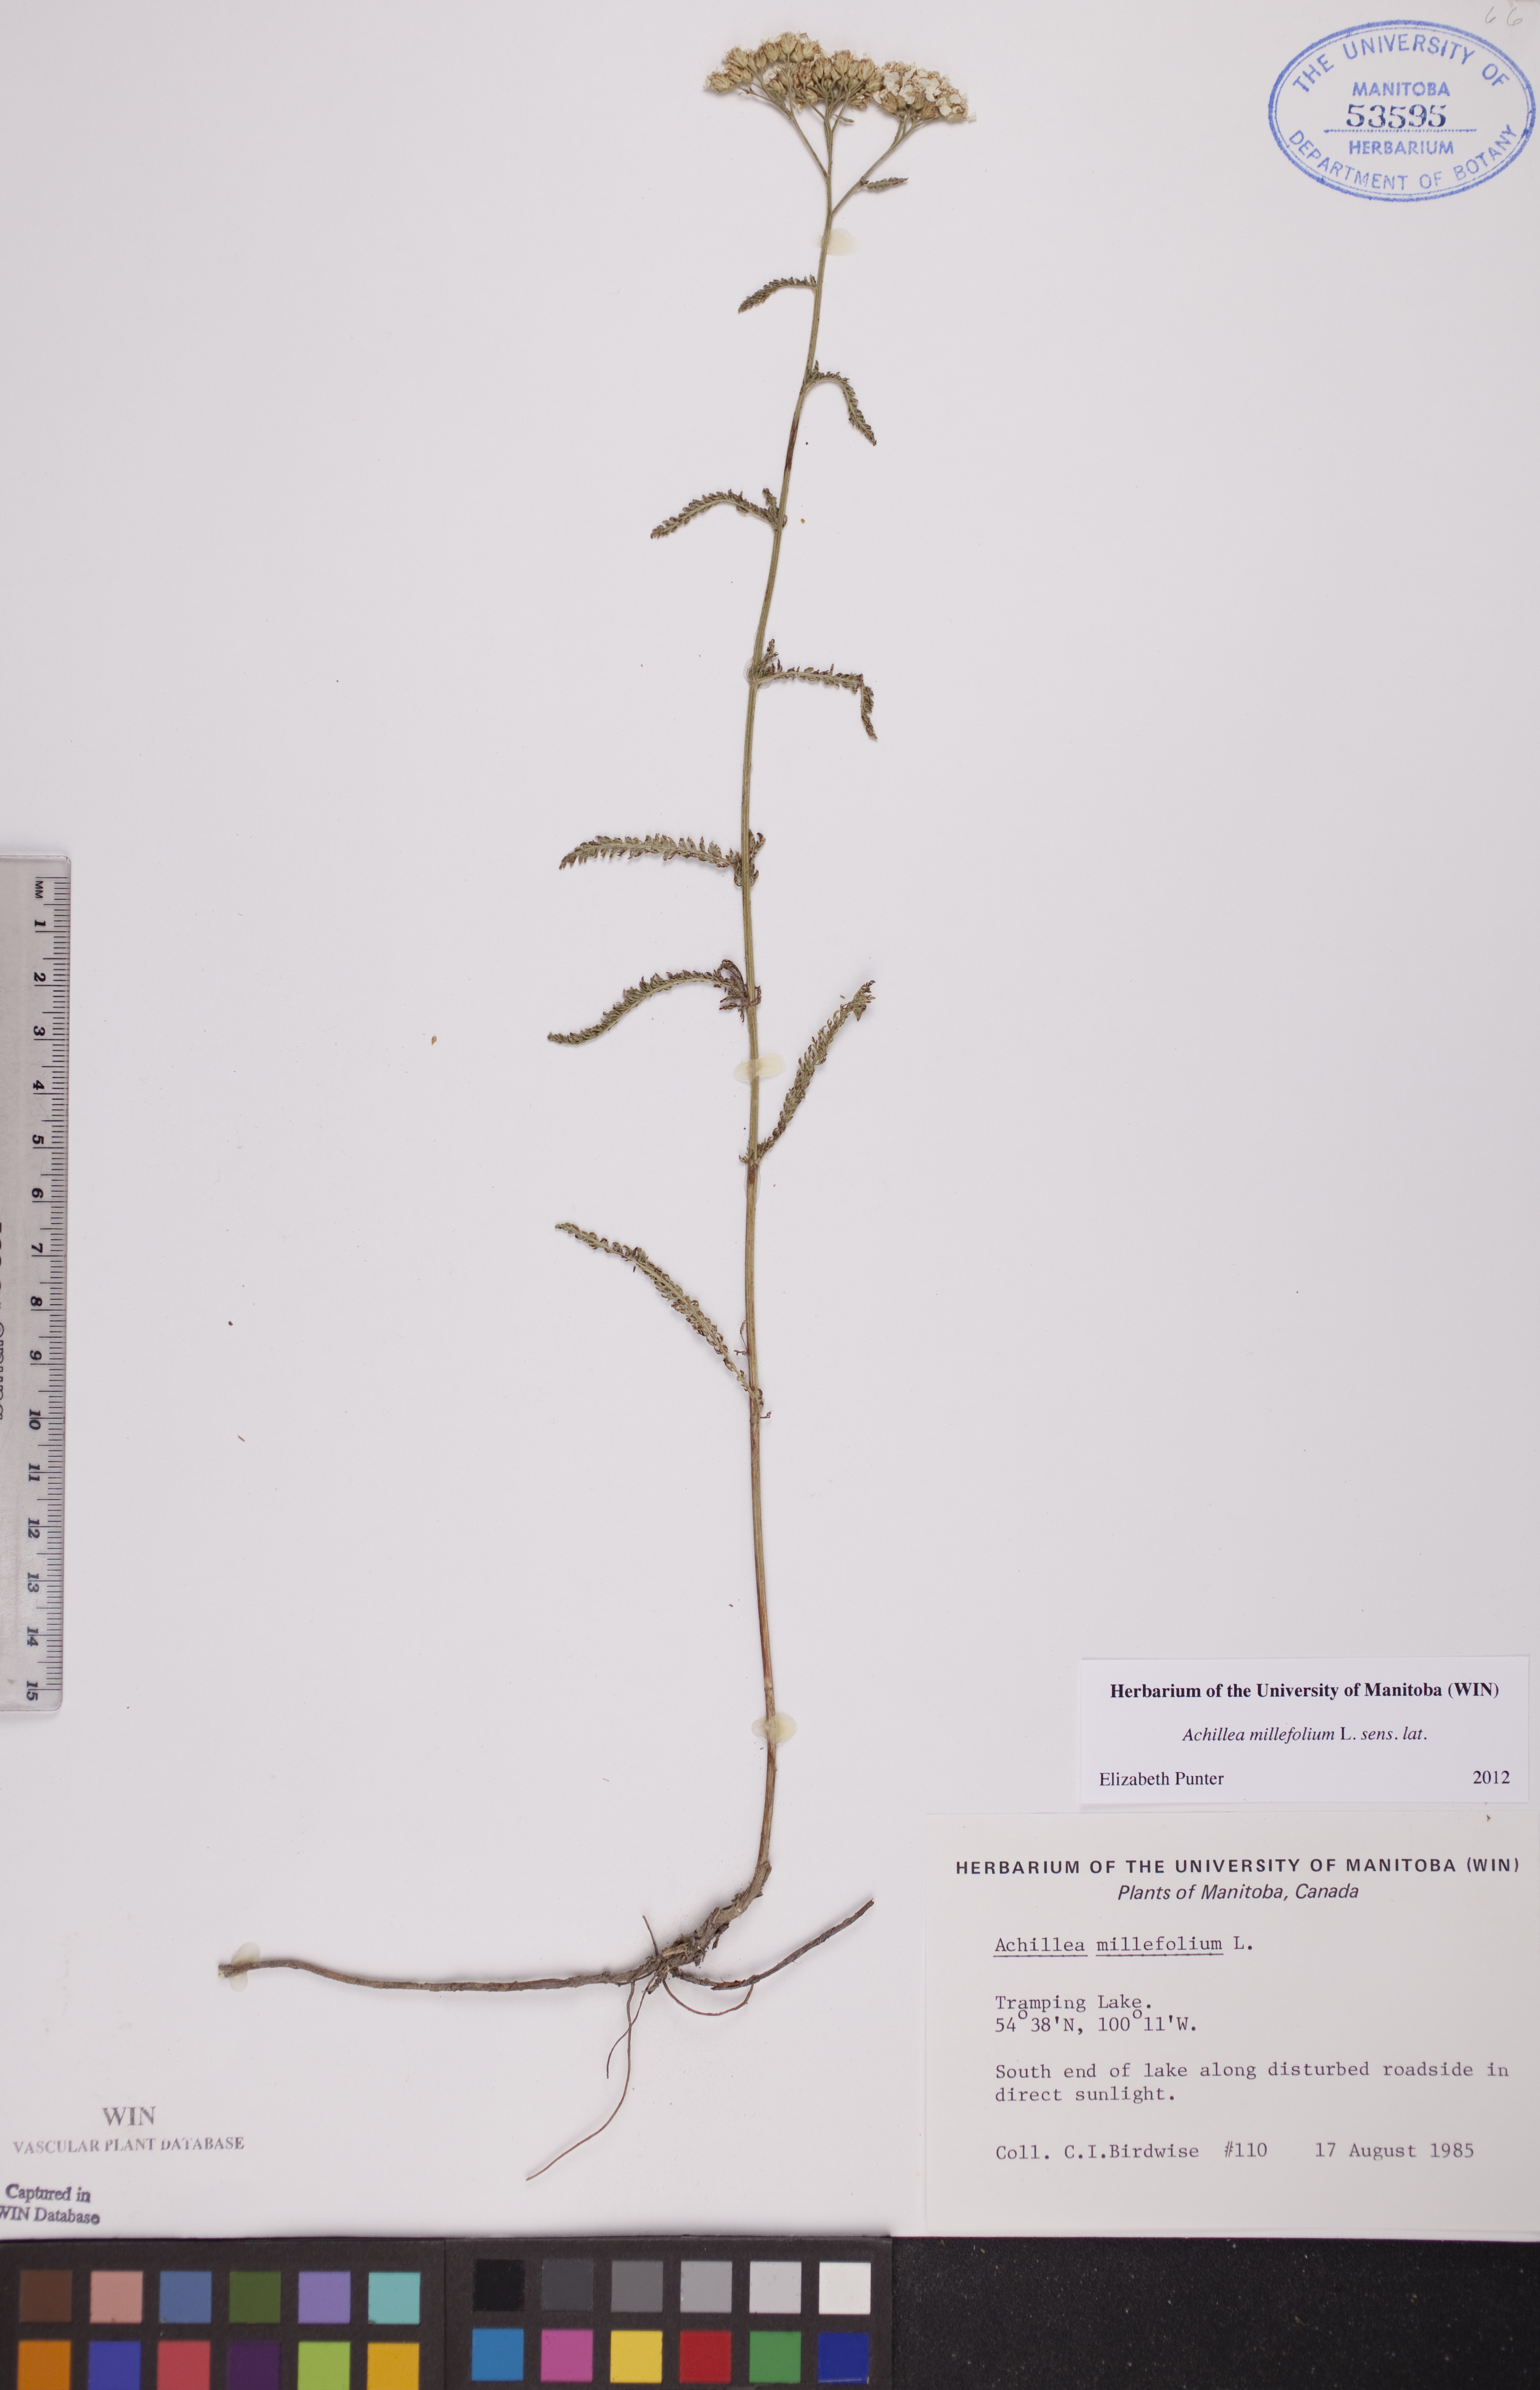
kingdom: Plantae
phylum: Tracheophyta
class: Magnoliopsida
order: Asterales
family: Asteraceae
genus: Achillea
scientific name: Achillea millefolium
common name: Yarrow
